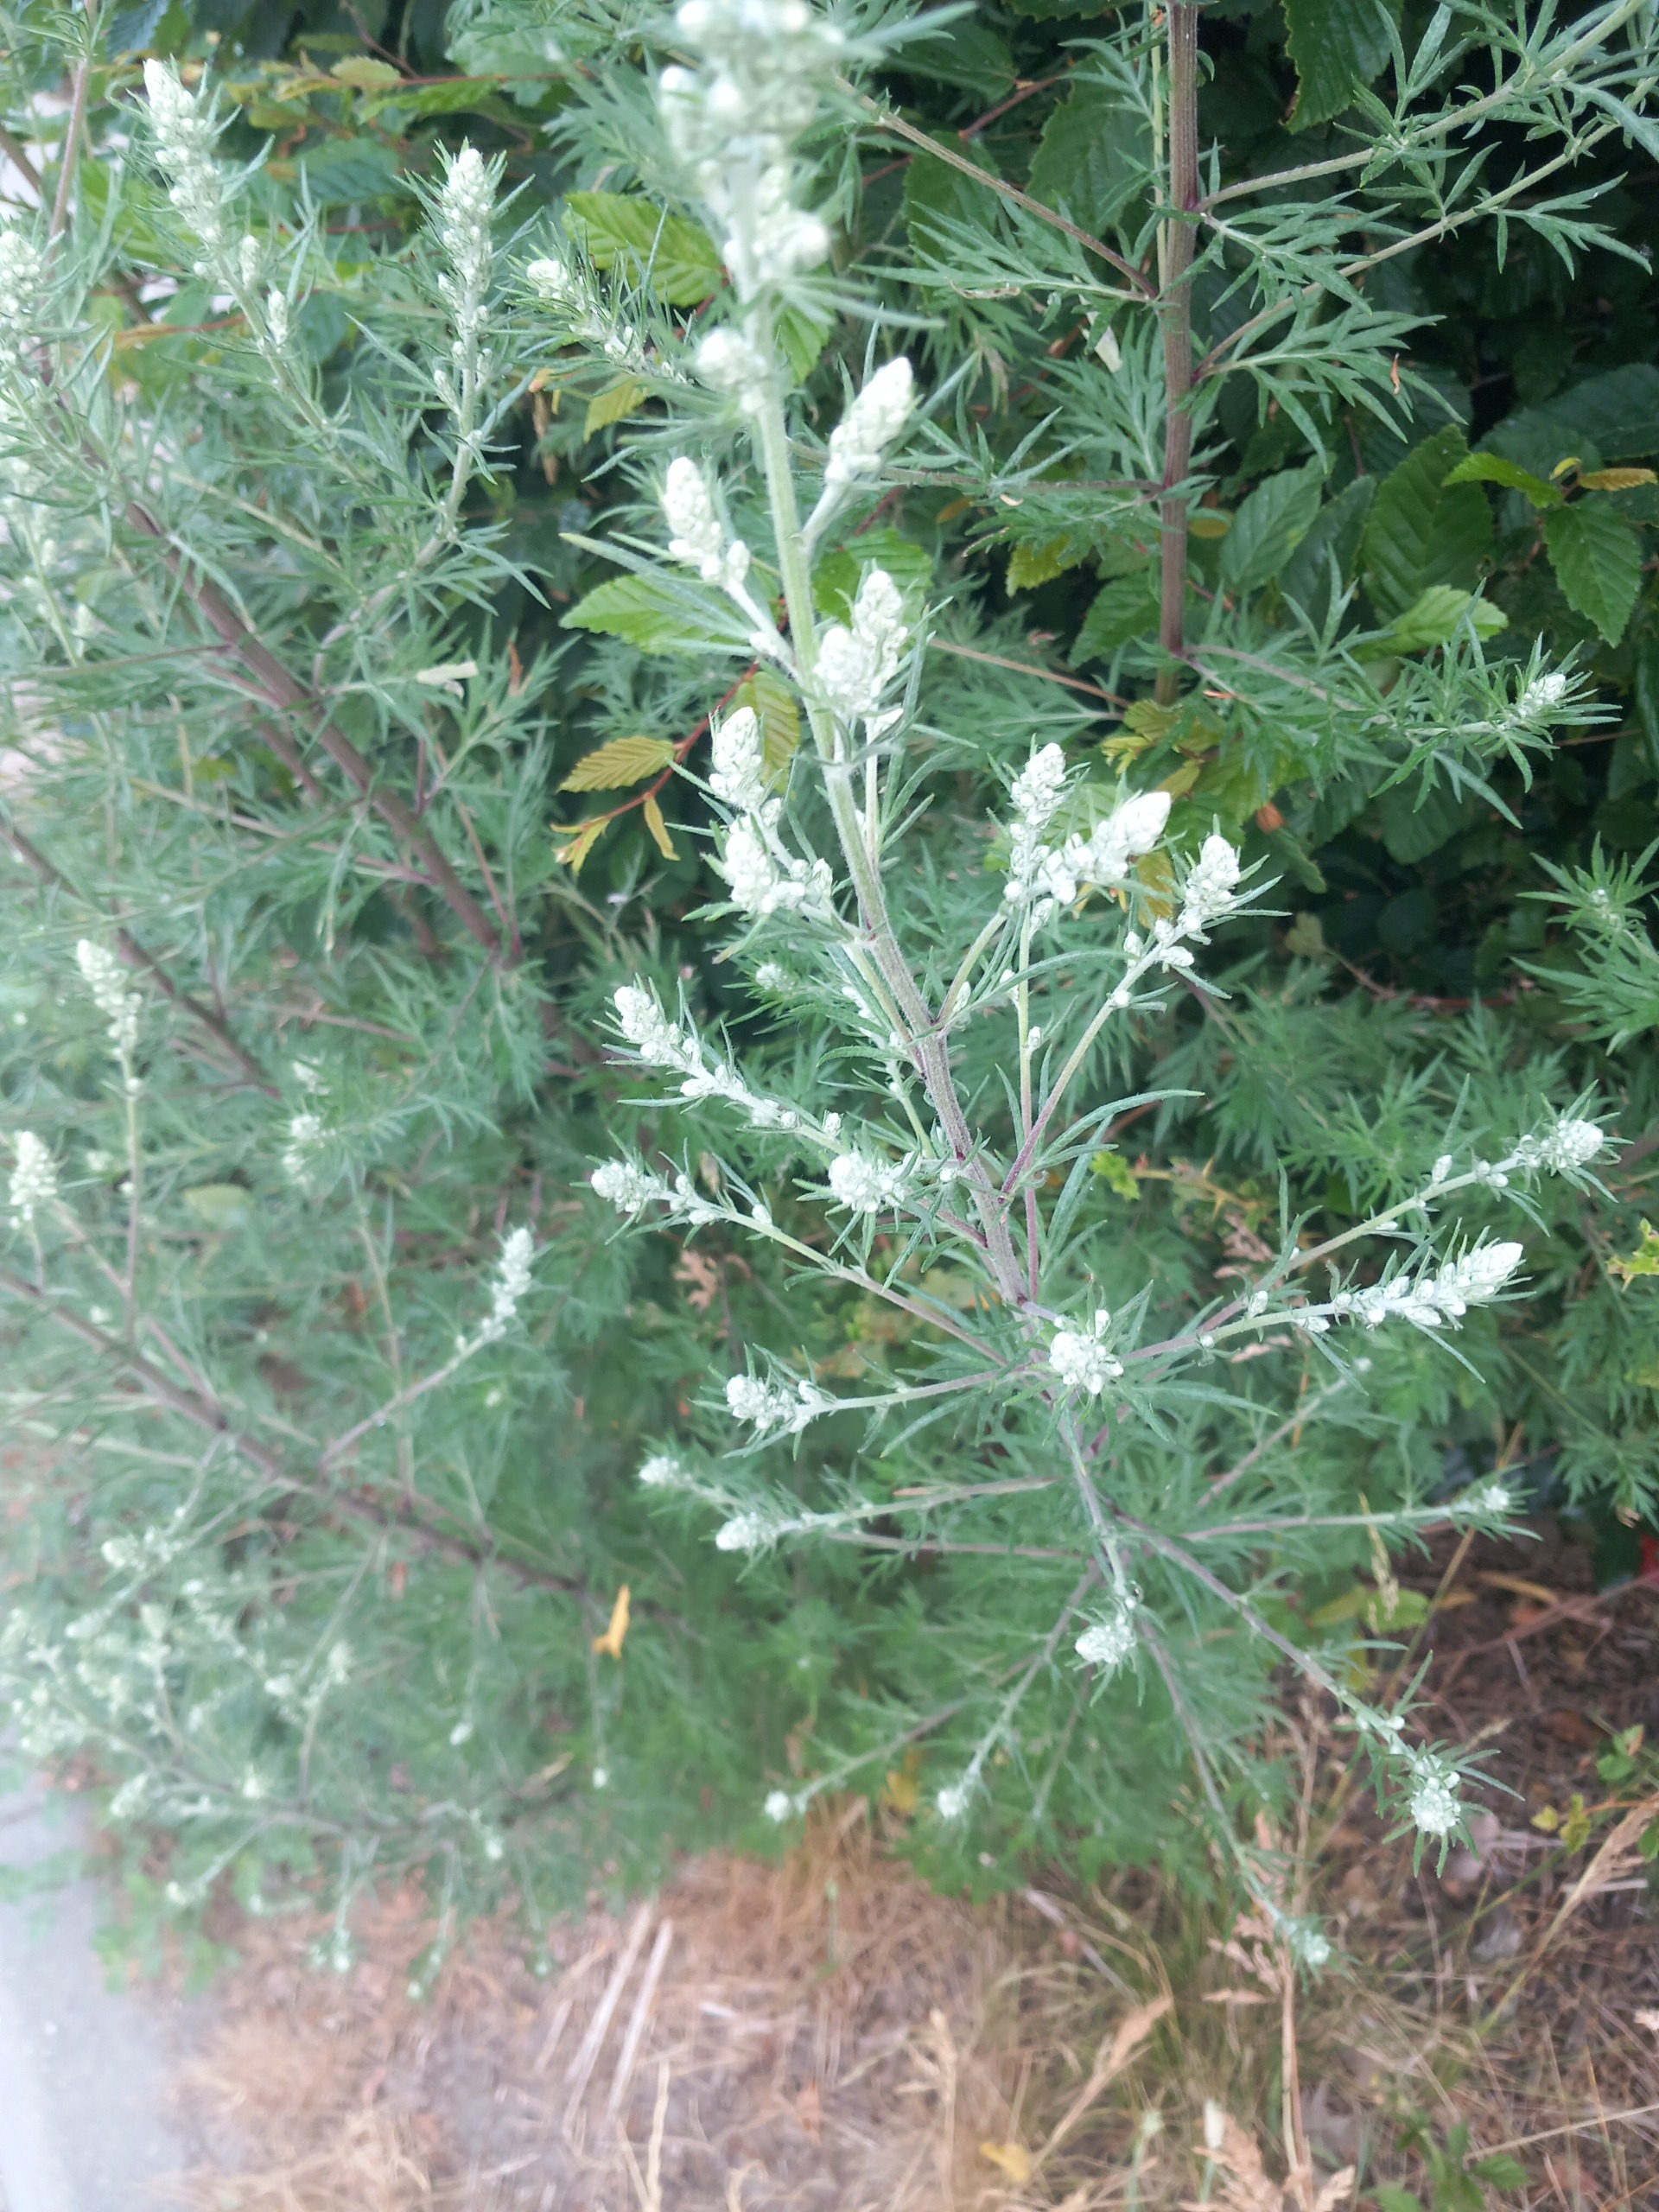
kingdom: Plantae
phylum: Tracheophyta
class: Magnoliopsida
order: Asterales
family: Asteraceae
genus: Artemisia
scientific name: Artemisia vulgaris
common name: Grå-bynke
